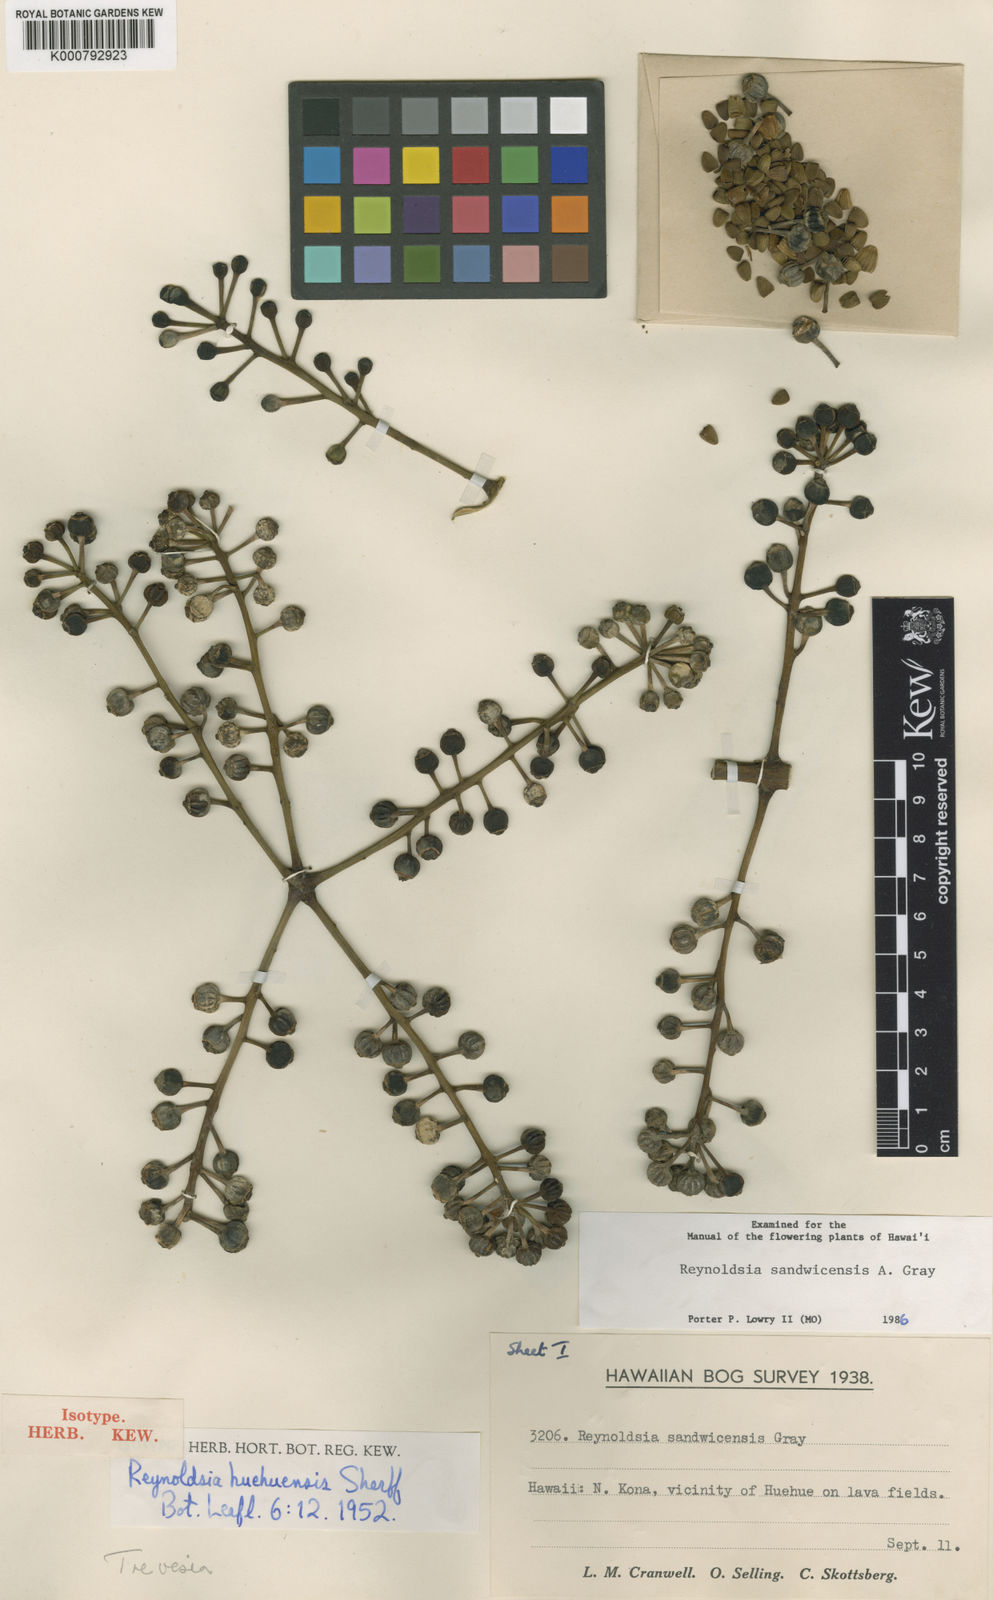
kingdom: Plantae
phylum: Tracheophyta
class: Magnoliopsida
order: Apiales
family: Araliaceae
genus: Polyscias
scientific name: Polyscias sandwicensis
